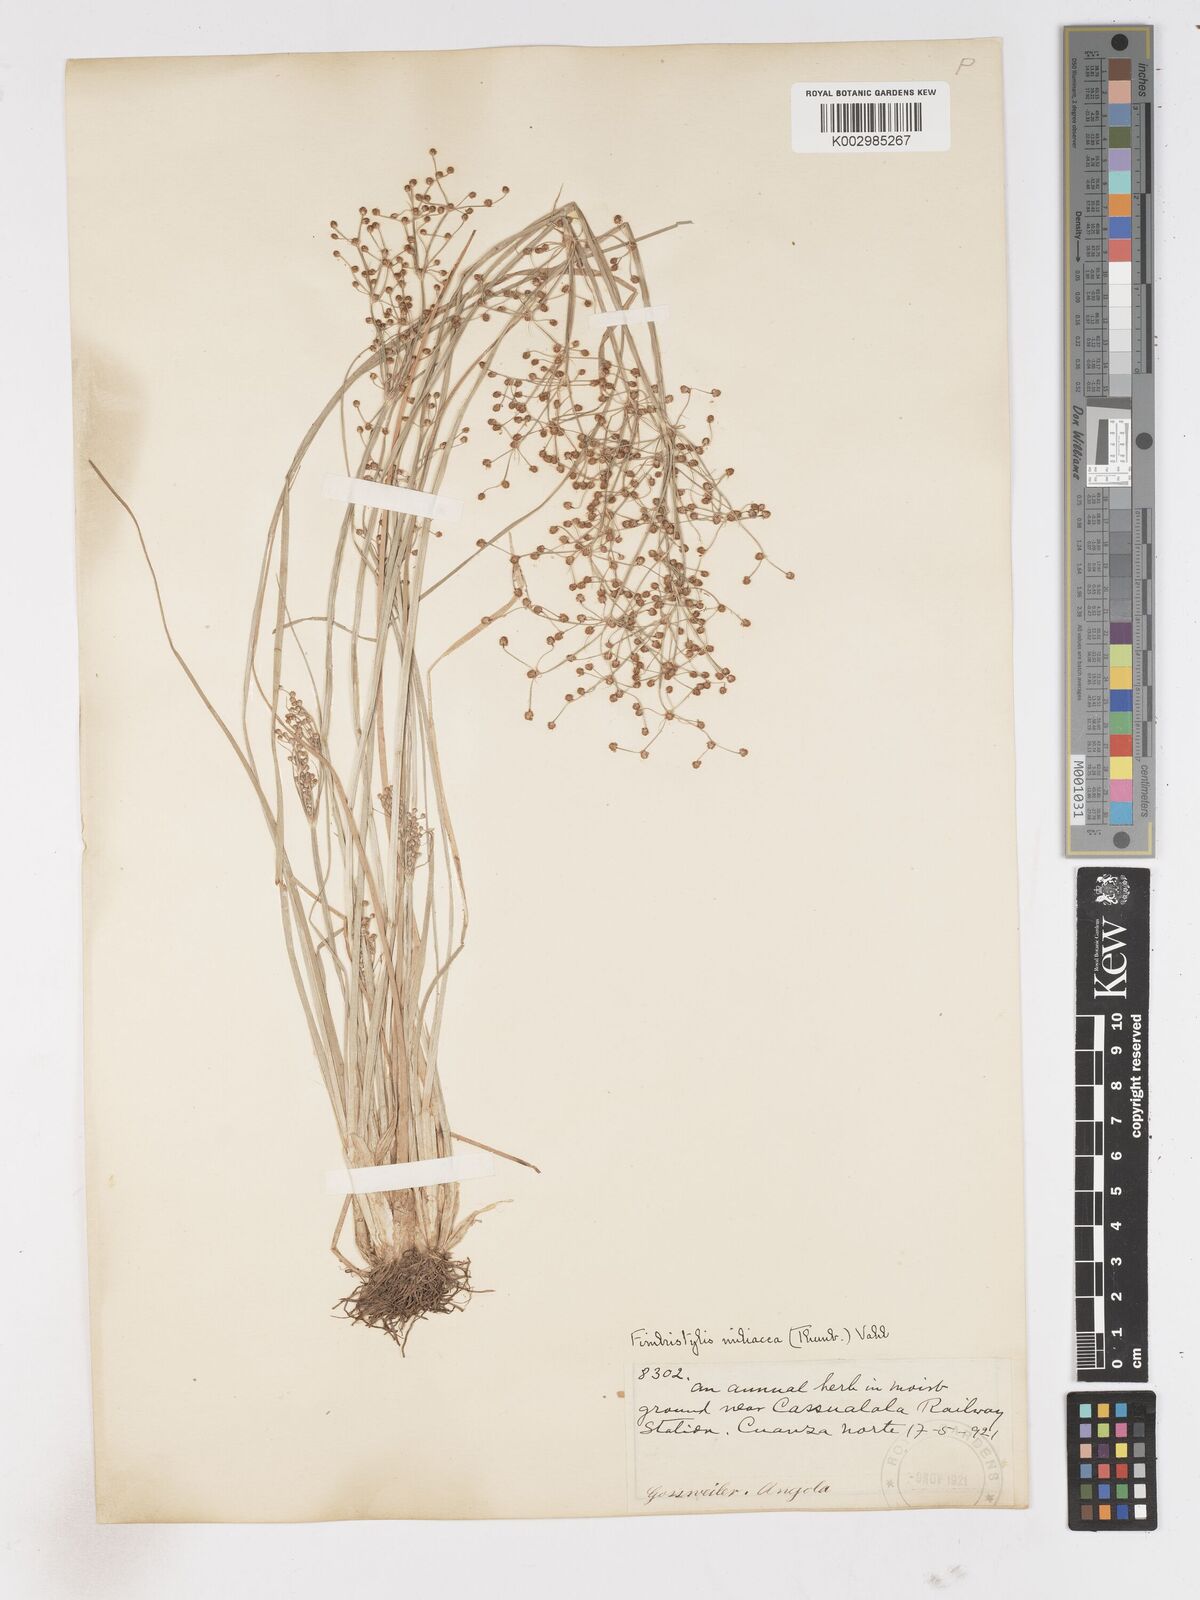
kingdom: Plantae
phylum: Tracheophyta
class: Liliopsida
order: Poales
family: Cyperaceae
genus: Fimbristylis
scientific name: Fimbristylis littoralis
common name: Fimbry
